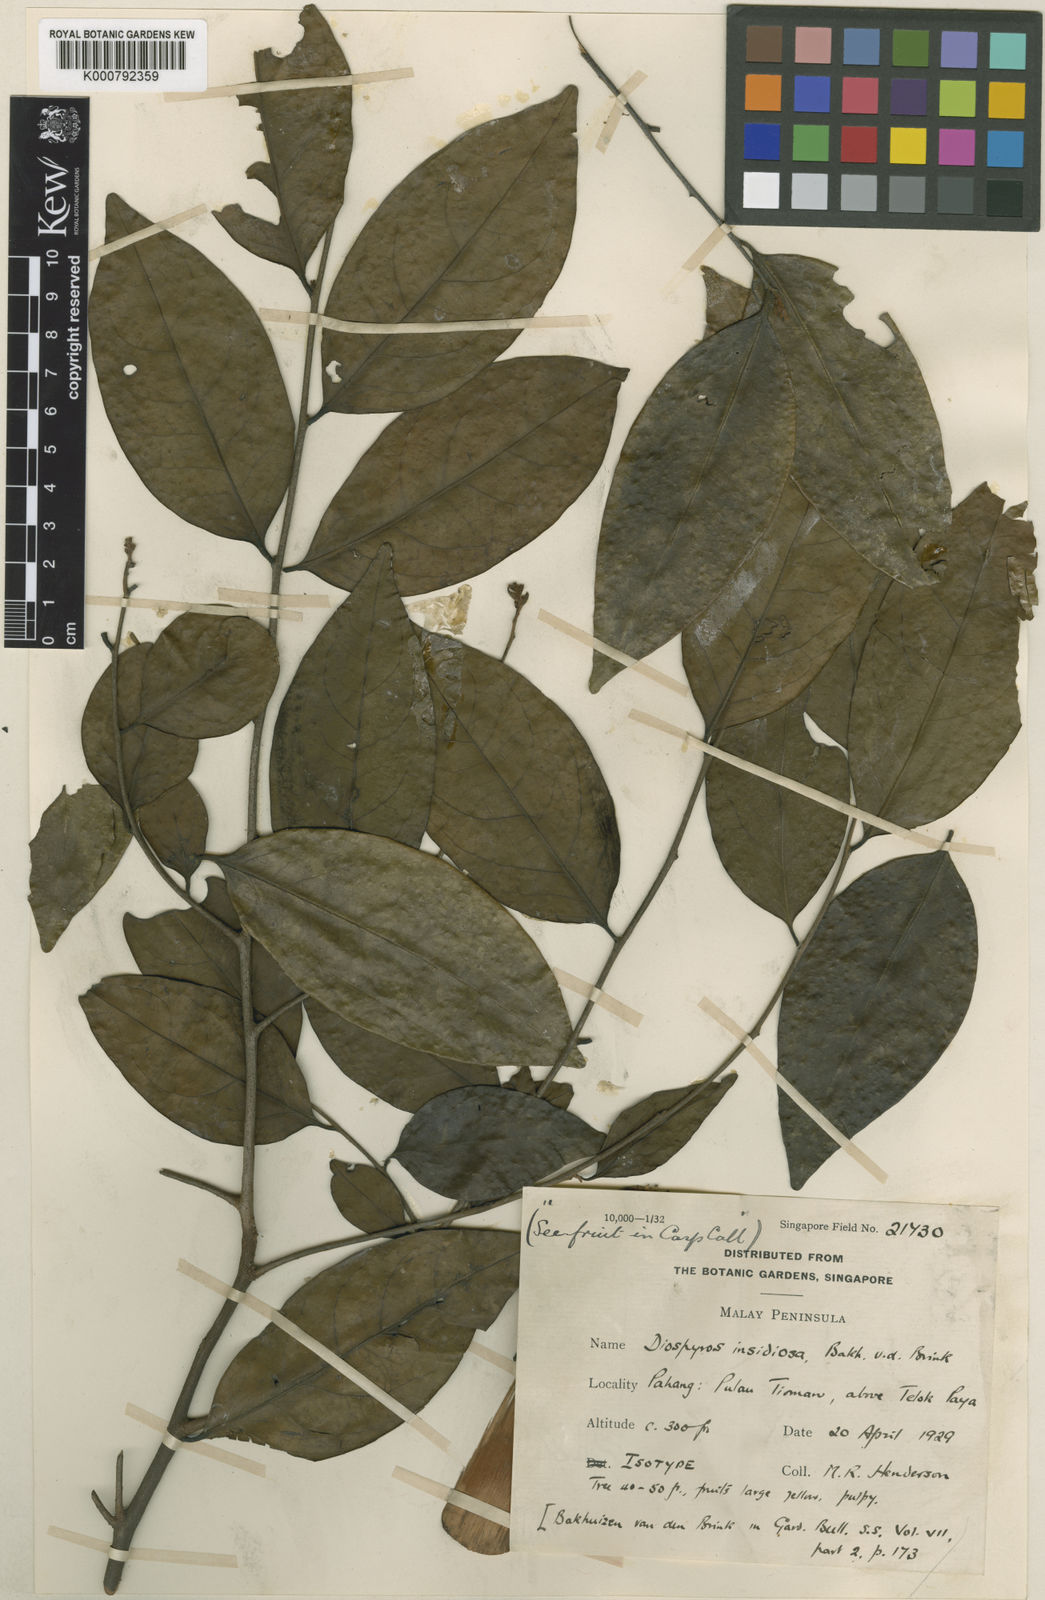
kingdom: Plantae
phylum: Tracheophyta
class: Magnoliopsida
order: Ericales
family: Ebenaceae
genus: Diospyros
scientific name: Diospyros insidiosa
